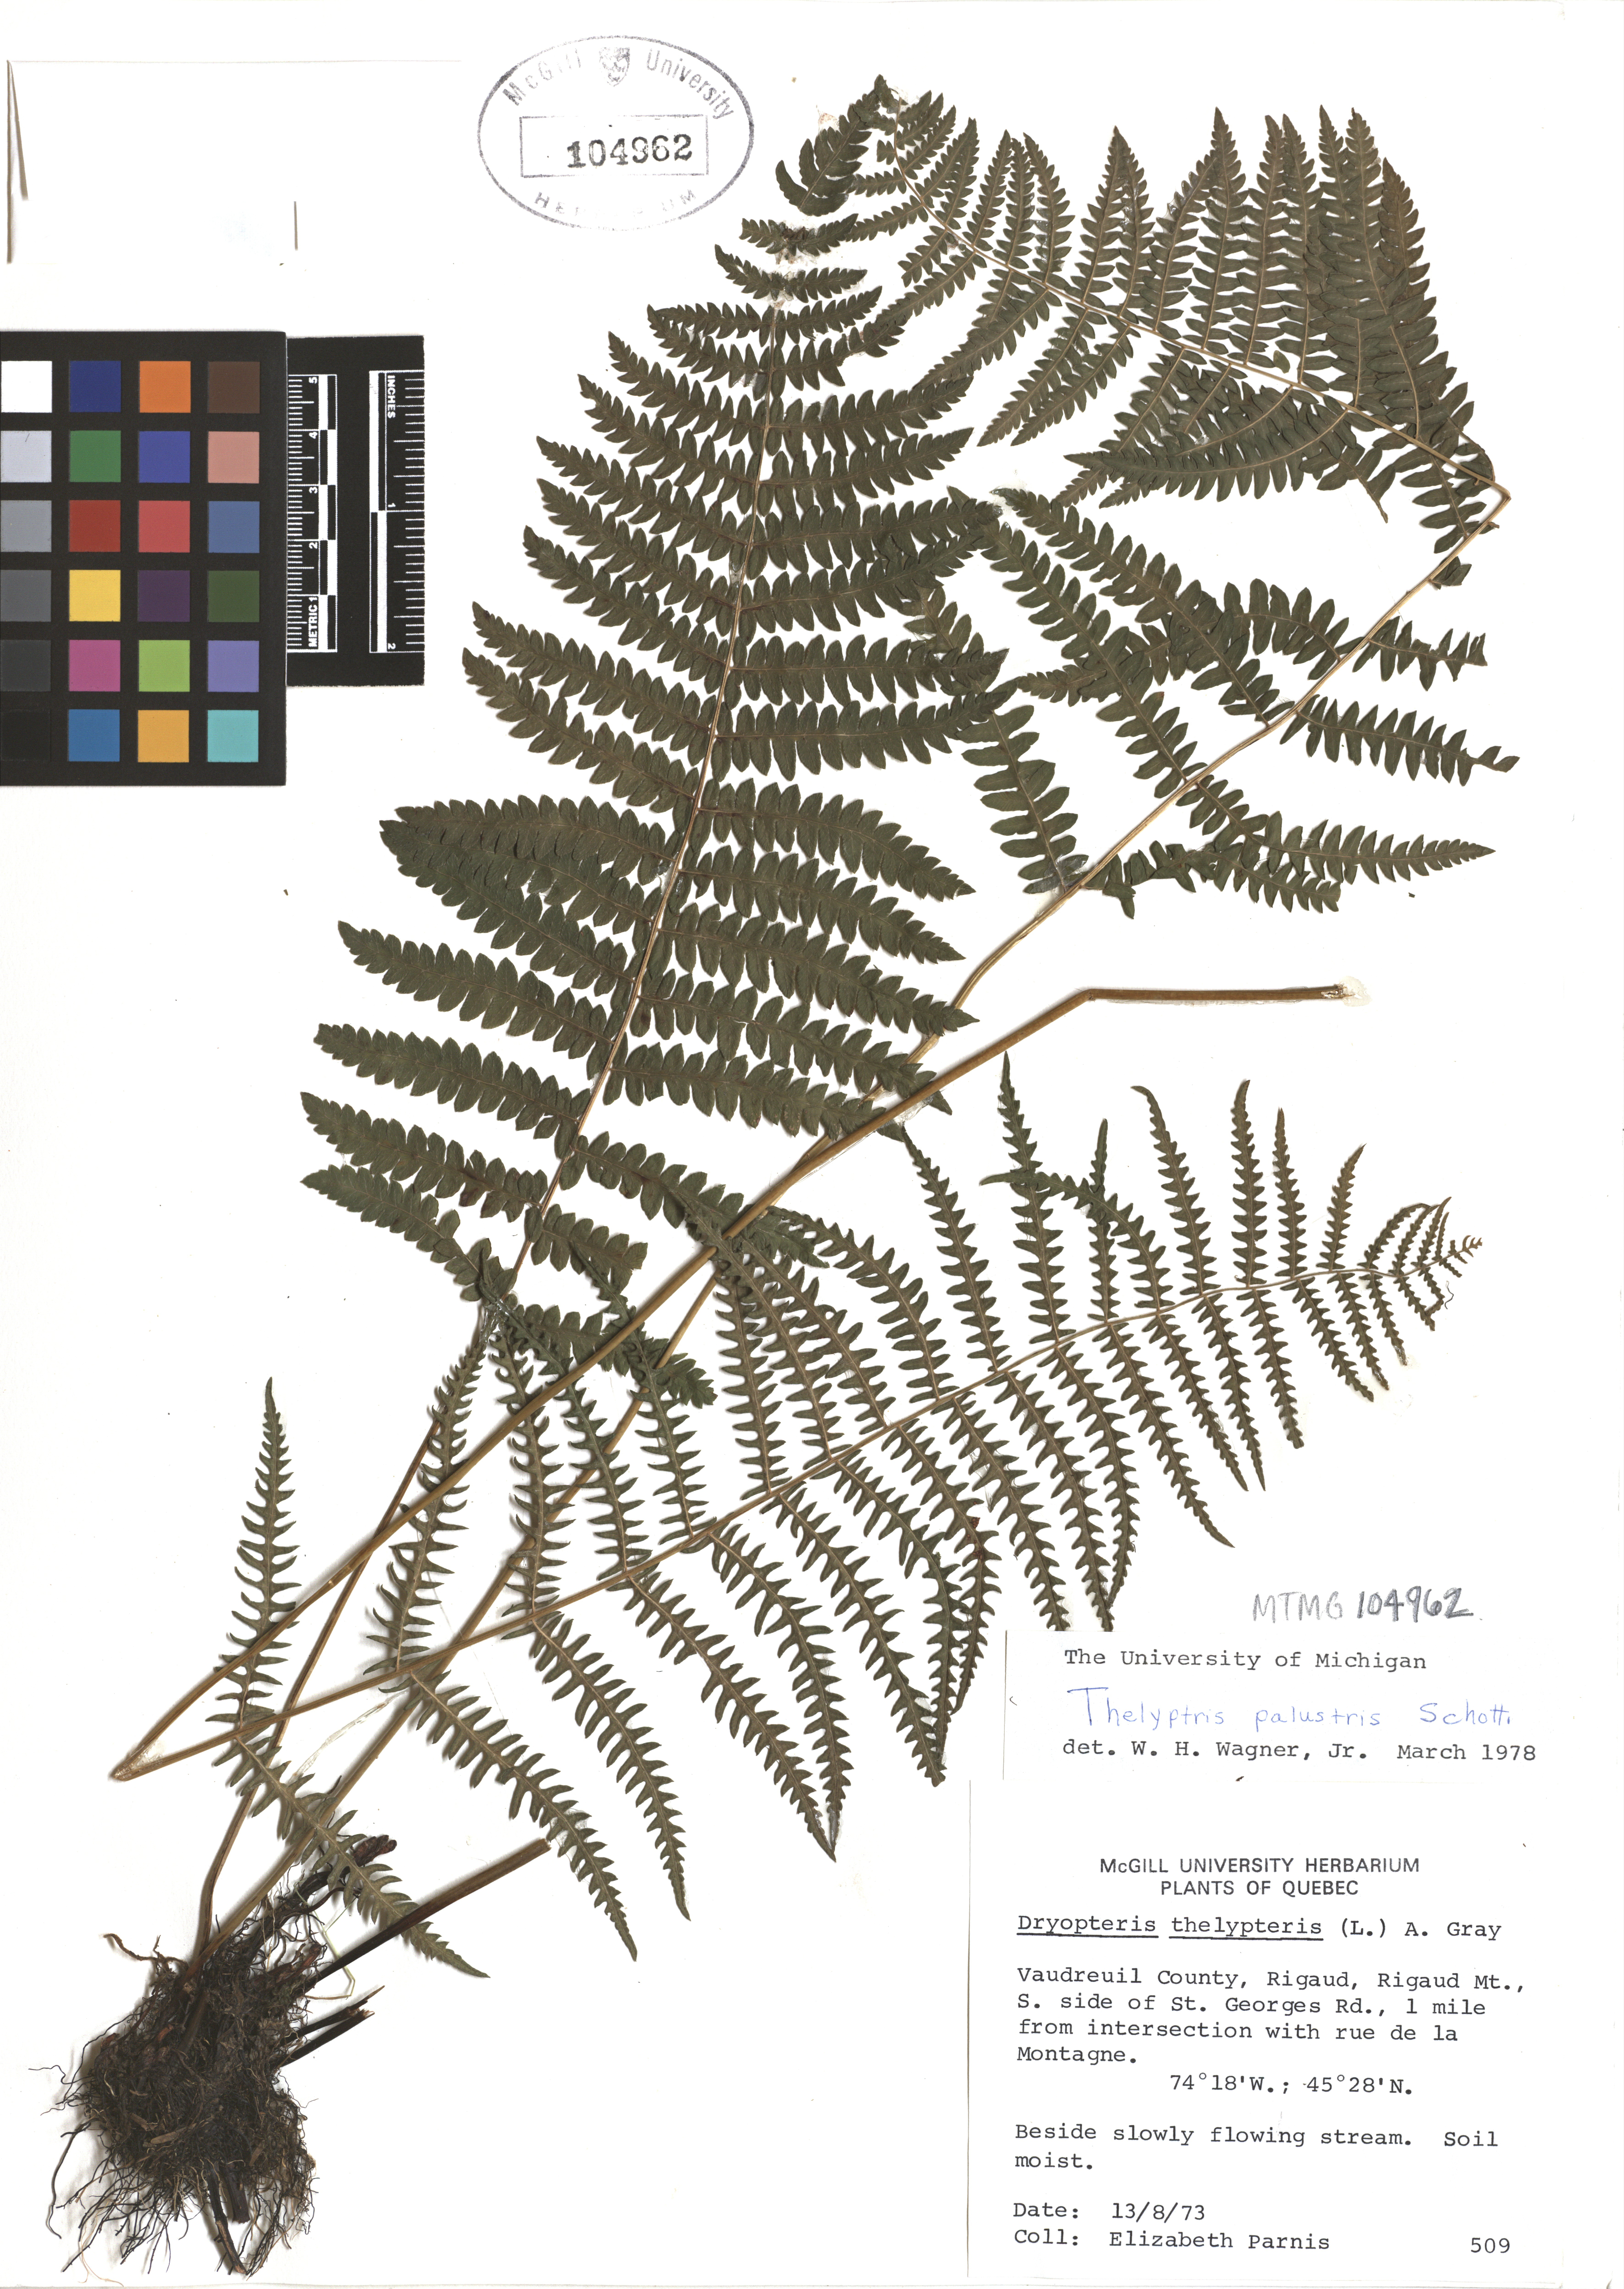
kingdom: Plantae
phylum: Tracheophyta
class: Polypodiopsida
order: Polypodiales
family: Thelypteridaceae
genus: Thelypteris
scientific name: Thelypteris confluens
